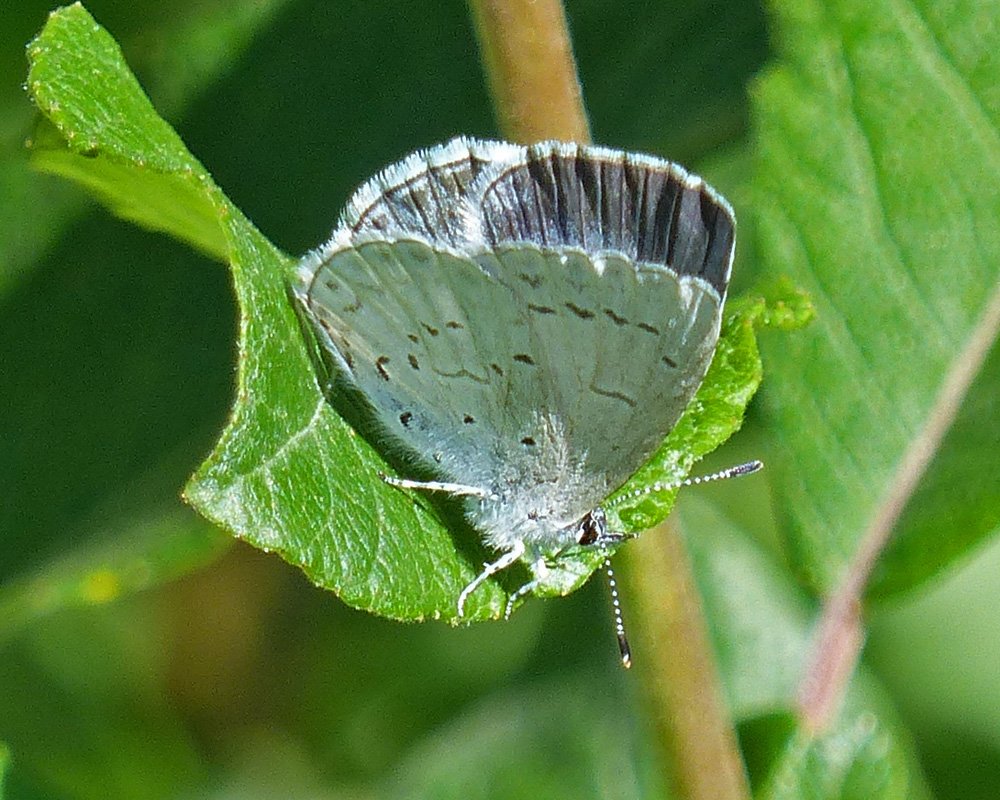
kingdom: Animalia
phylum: Arthropoda
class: Insecta
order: Lepidoptera
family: Lycaenidae
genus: Celastrina
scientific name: Celastrina ladon
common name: Echo Azure
